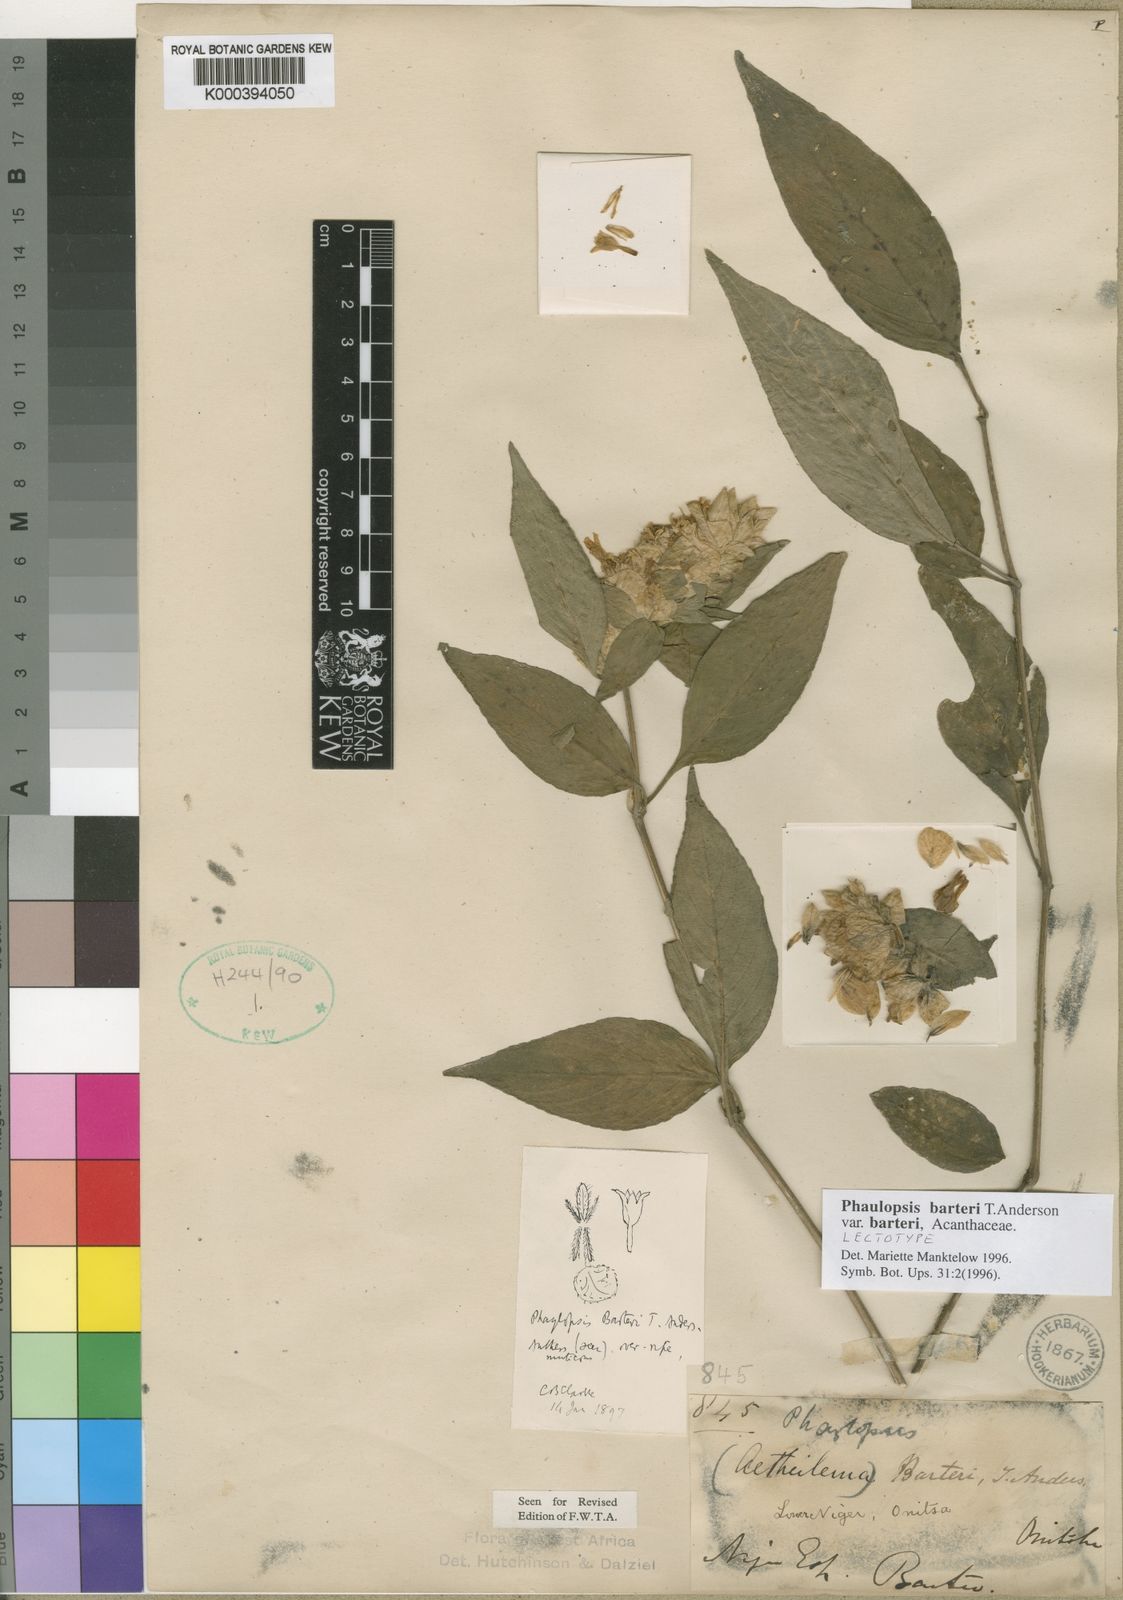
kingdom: Plantae
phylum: Tracheophyta
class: Magnoliopsida
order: Lamiales
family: Acanthaceae
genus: Phaulopsis
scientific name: Phaulopsis barteri
